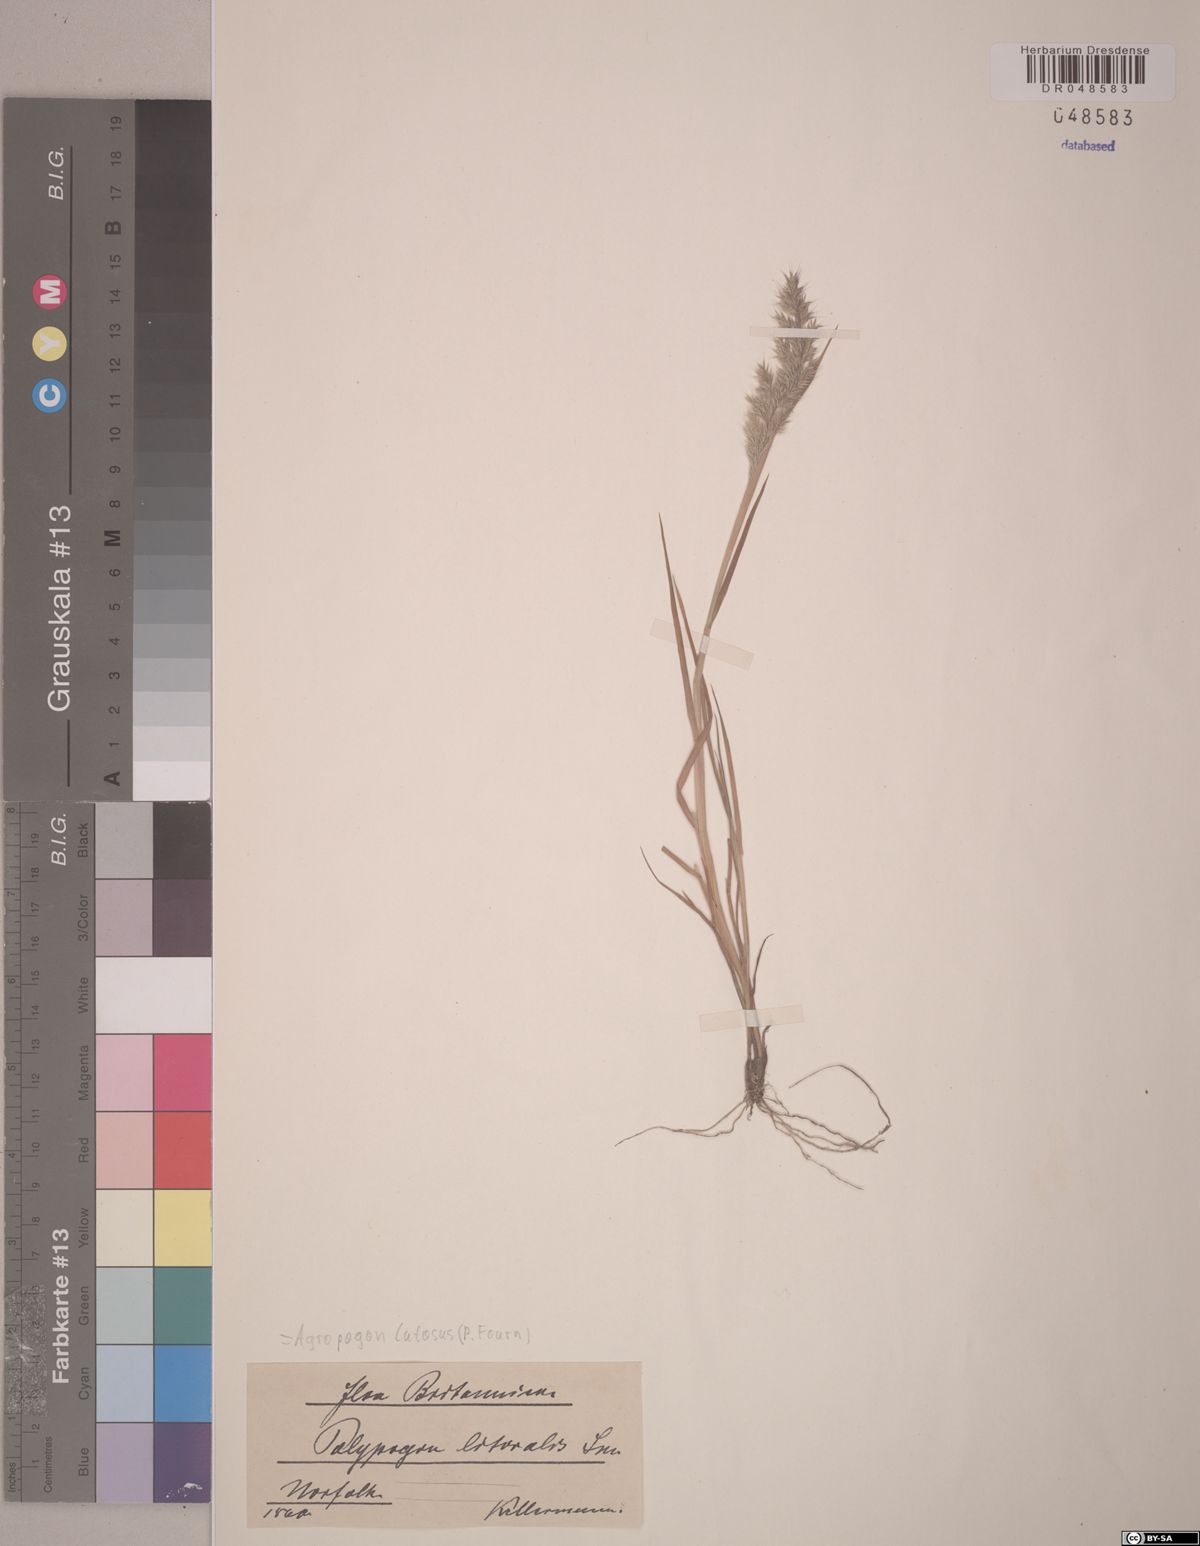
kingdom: Plantae
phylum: Tracheophyta
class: Liliopsida
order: Poales
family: Poaceae
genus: Agropogon
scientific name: Agropogon lutosus
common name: Coast agropogon
